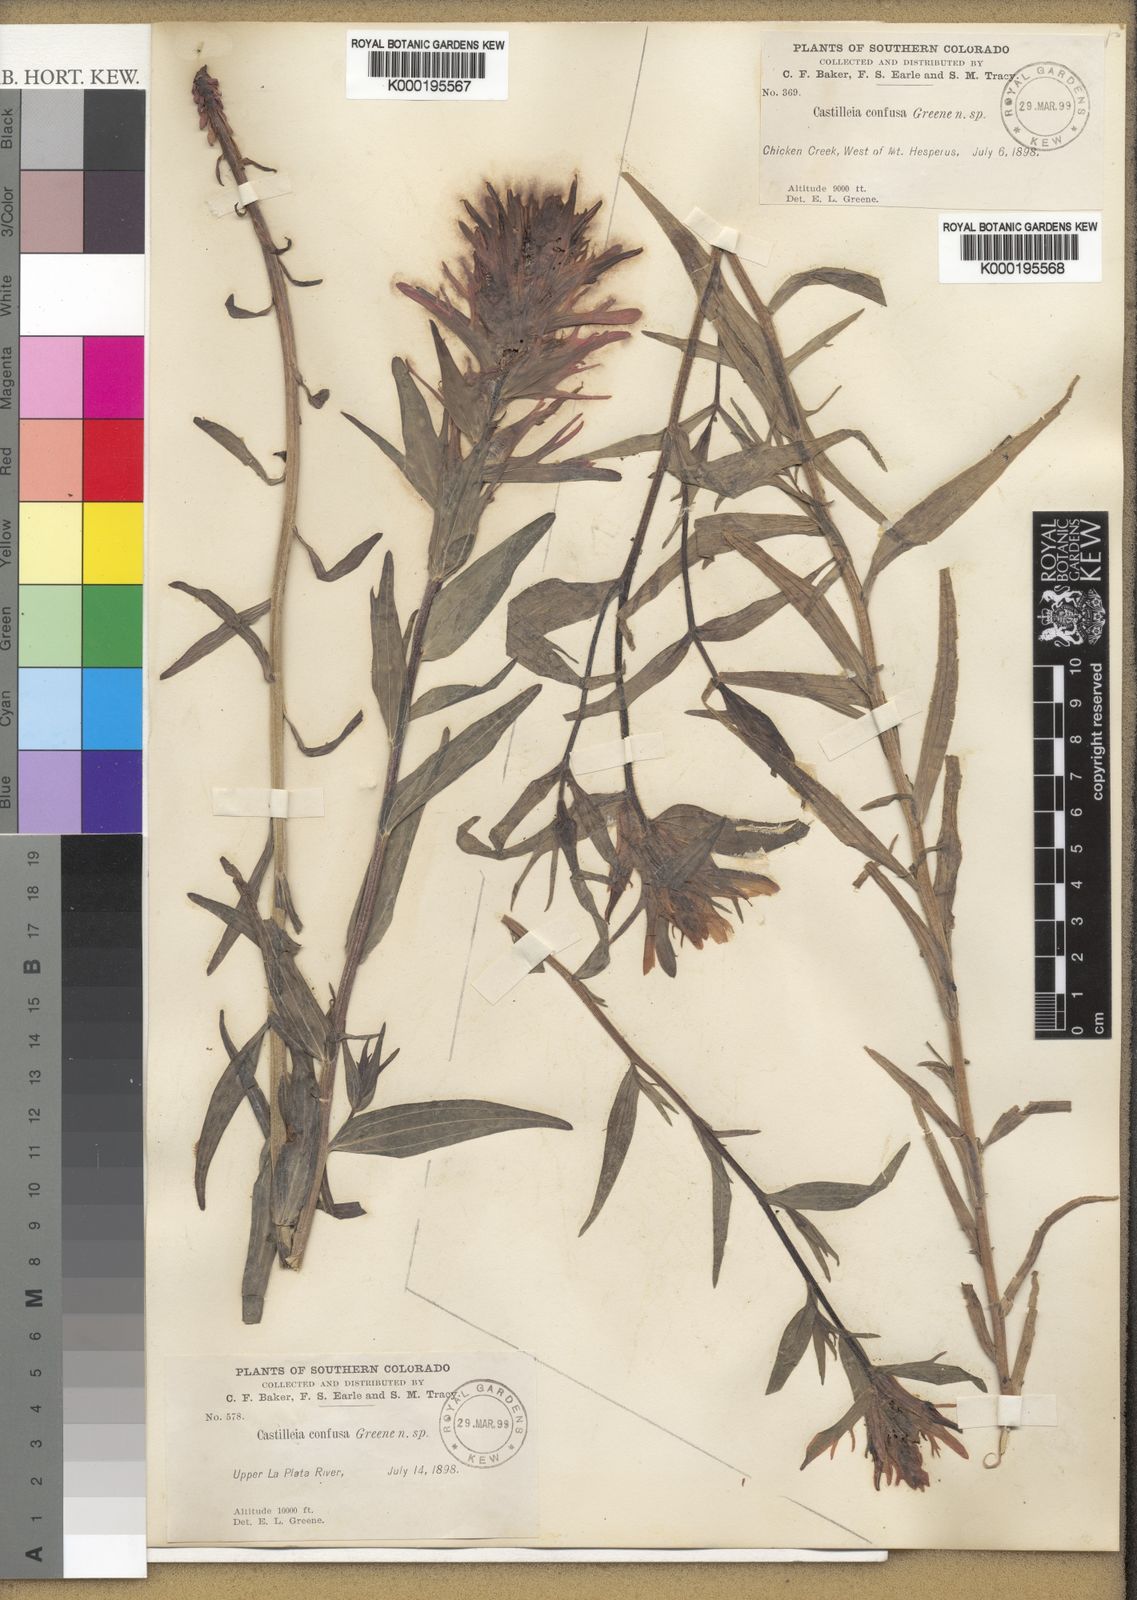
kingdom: Plantae
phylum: Tracheophyta
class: Magnoliopsida
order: Lamiales
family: Orobanchaceae
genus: Castilleja
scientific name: Castilleja
